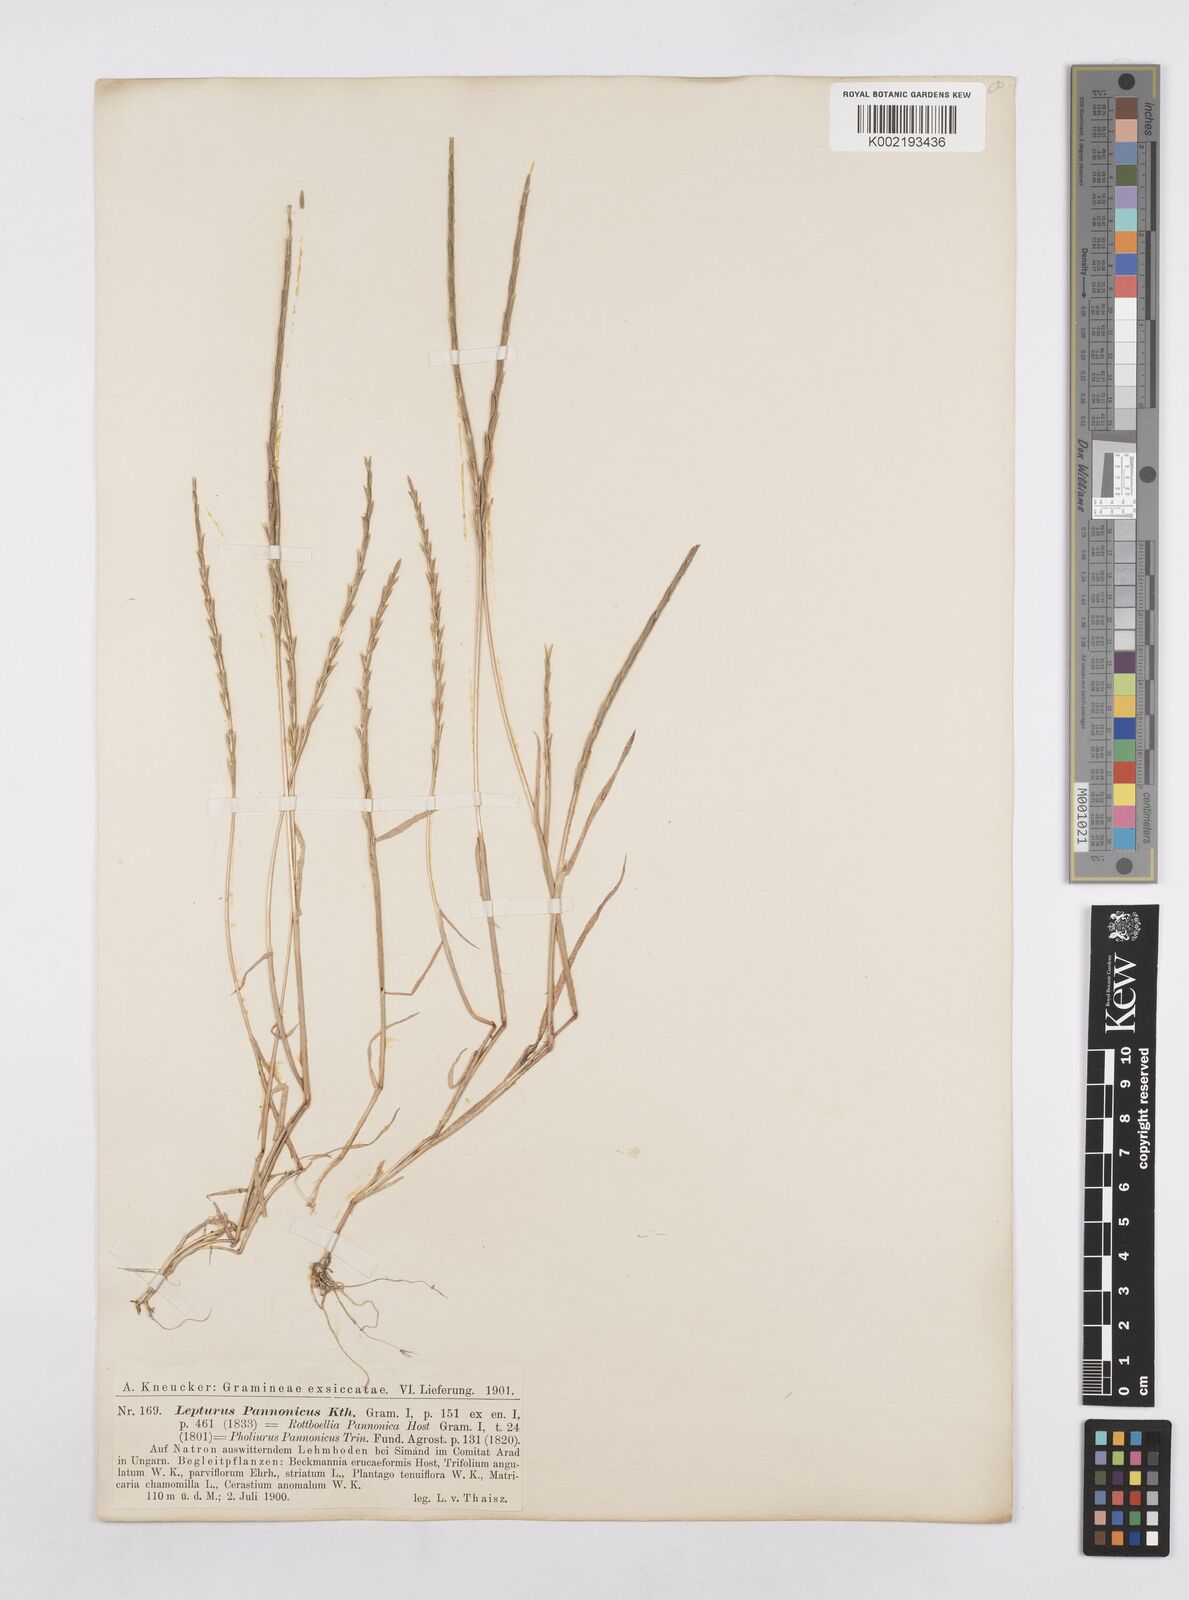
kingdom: Plantae
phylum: Tracheophyta
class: Liliopsida
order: Poales
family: Poaceae
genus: Pholiurus
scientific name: Pholiurus pannonicus
